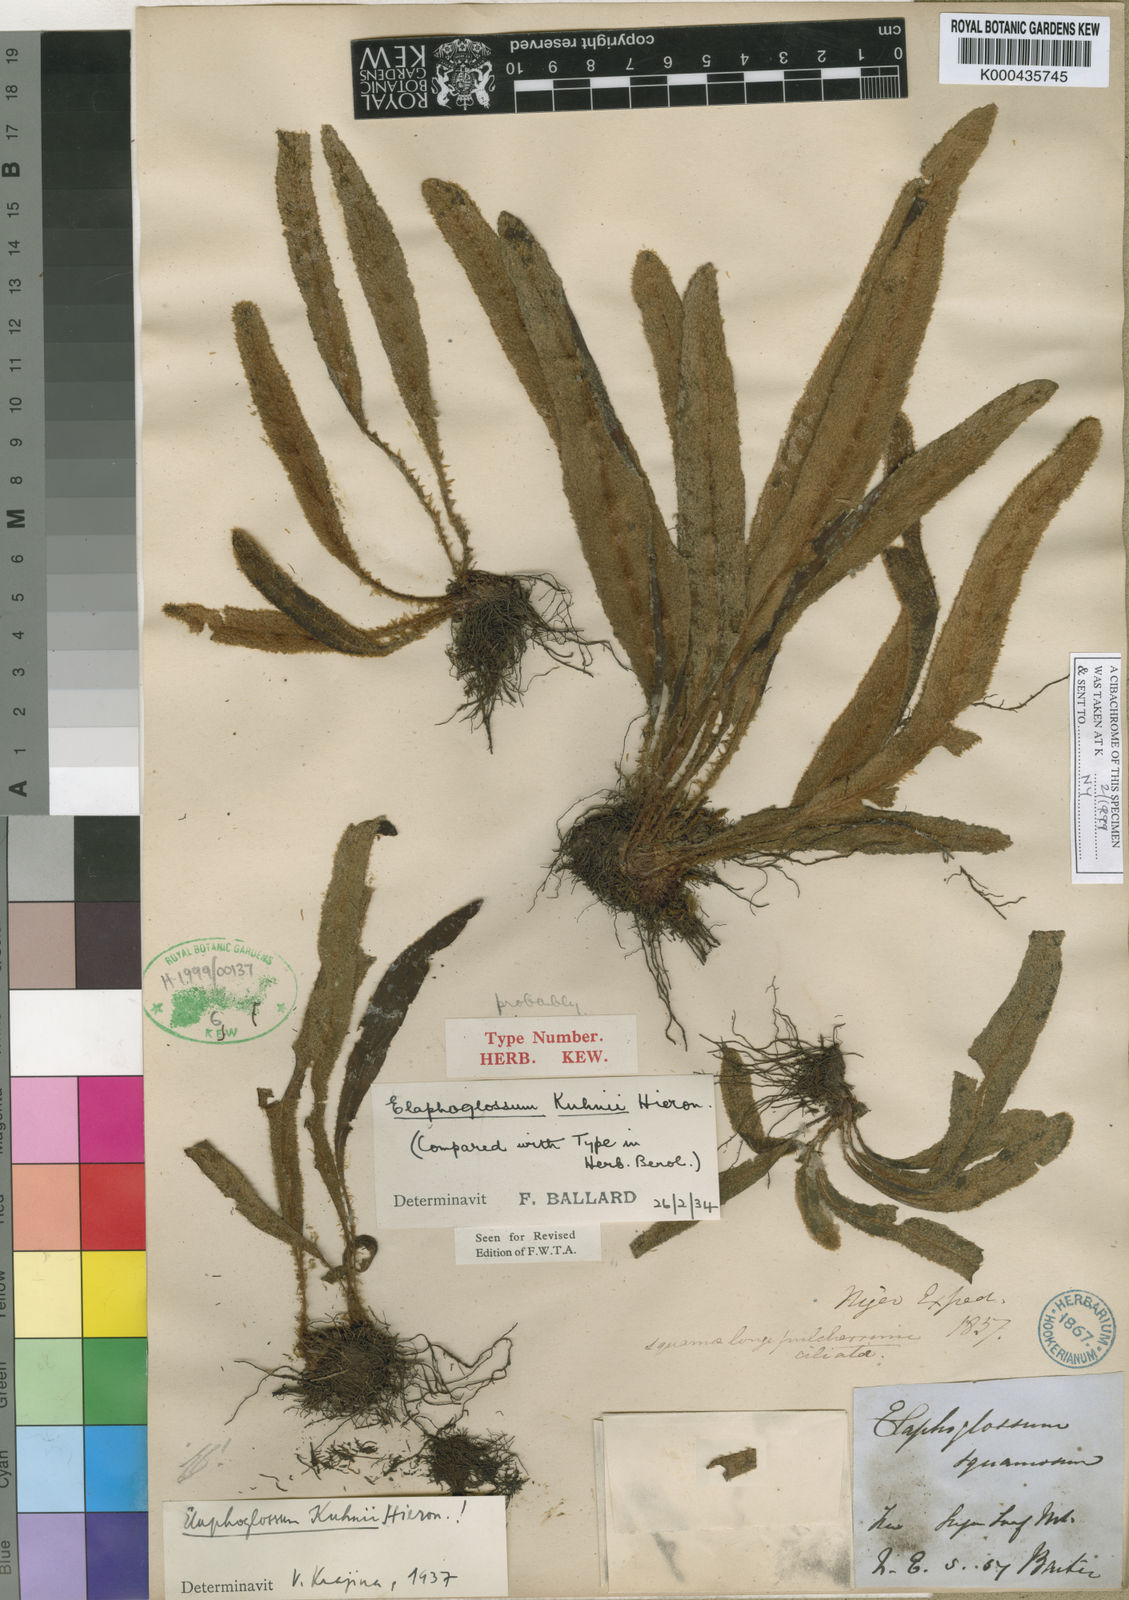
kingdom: Plantae
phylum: Tracheophyta
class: Polypodiopsida
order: Polypodiales
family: Dryopteridaceae
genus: Elaphoglossum
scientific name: Elaphoglossum kuhnii
